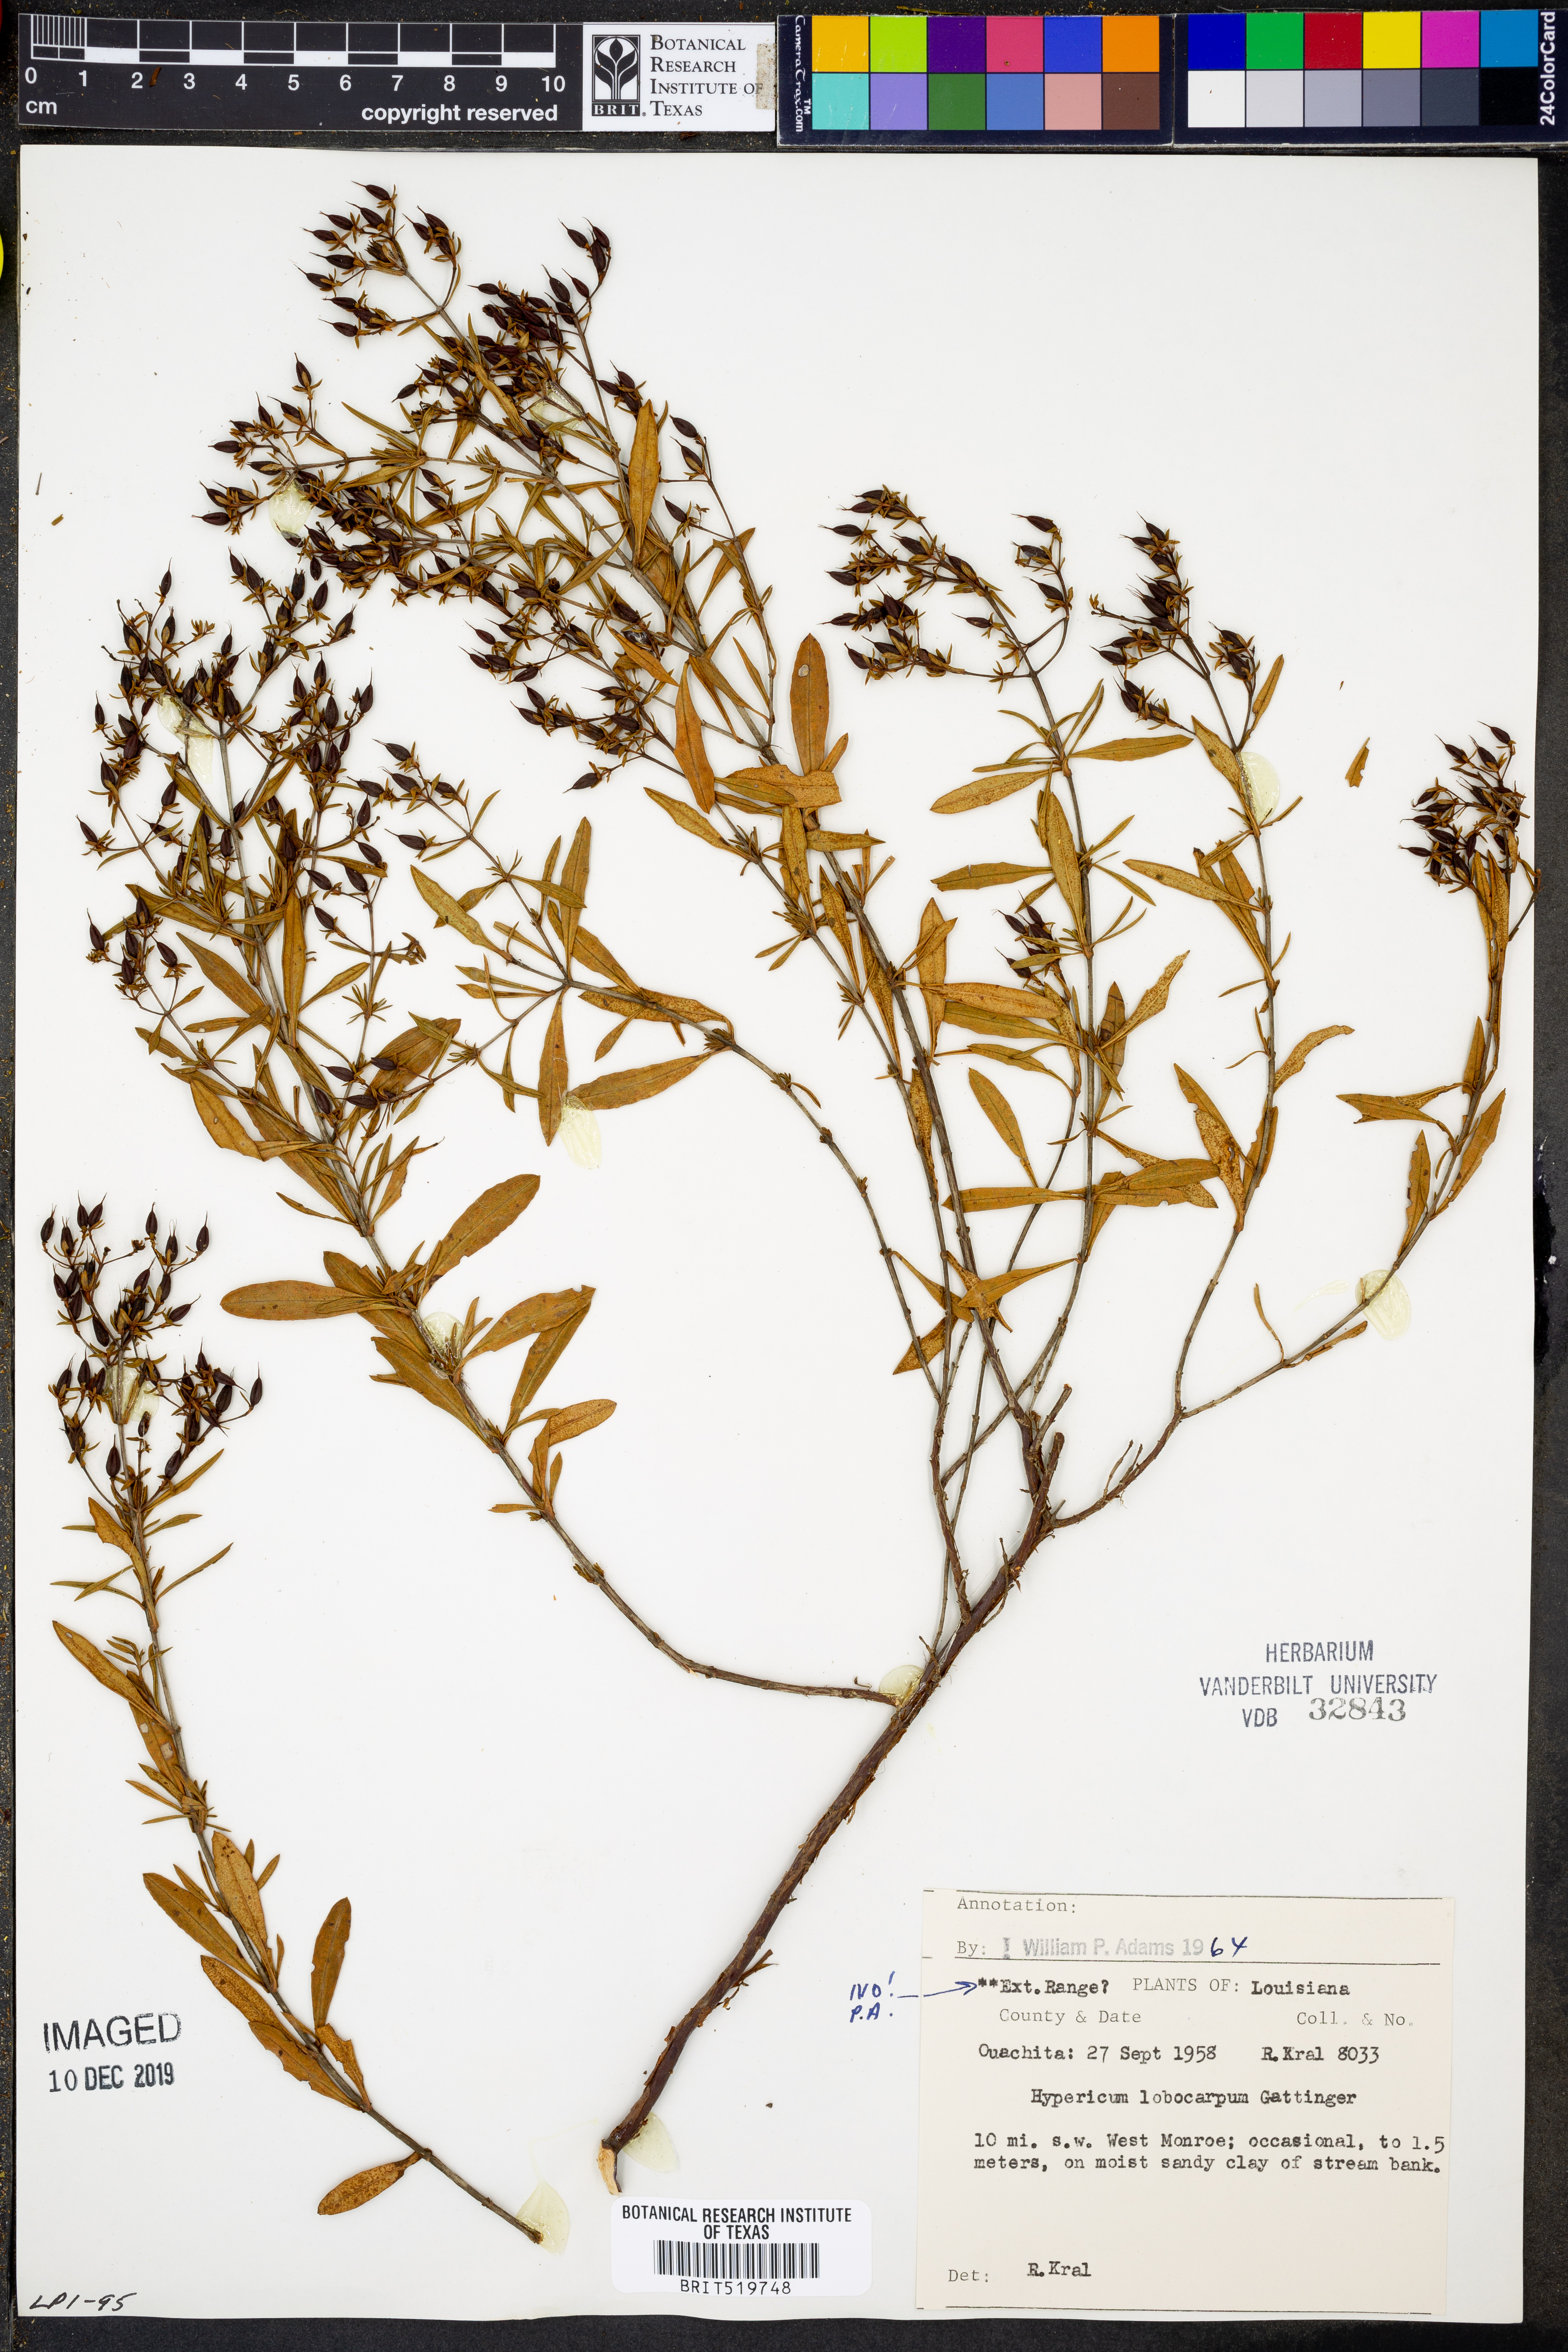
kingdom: Plantae
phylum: Tracheophyta
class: Magnoliopsida
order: Malpighiales
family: Hypericaceae
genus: Hypericum
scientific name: Hypericum lobocarpum
